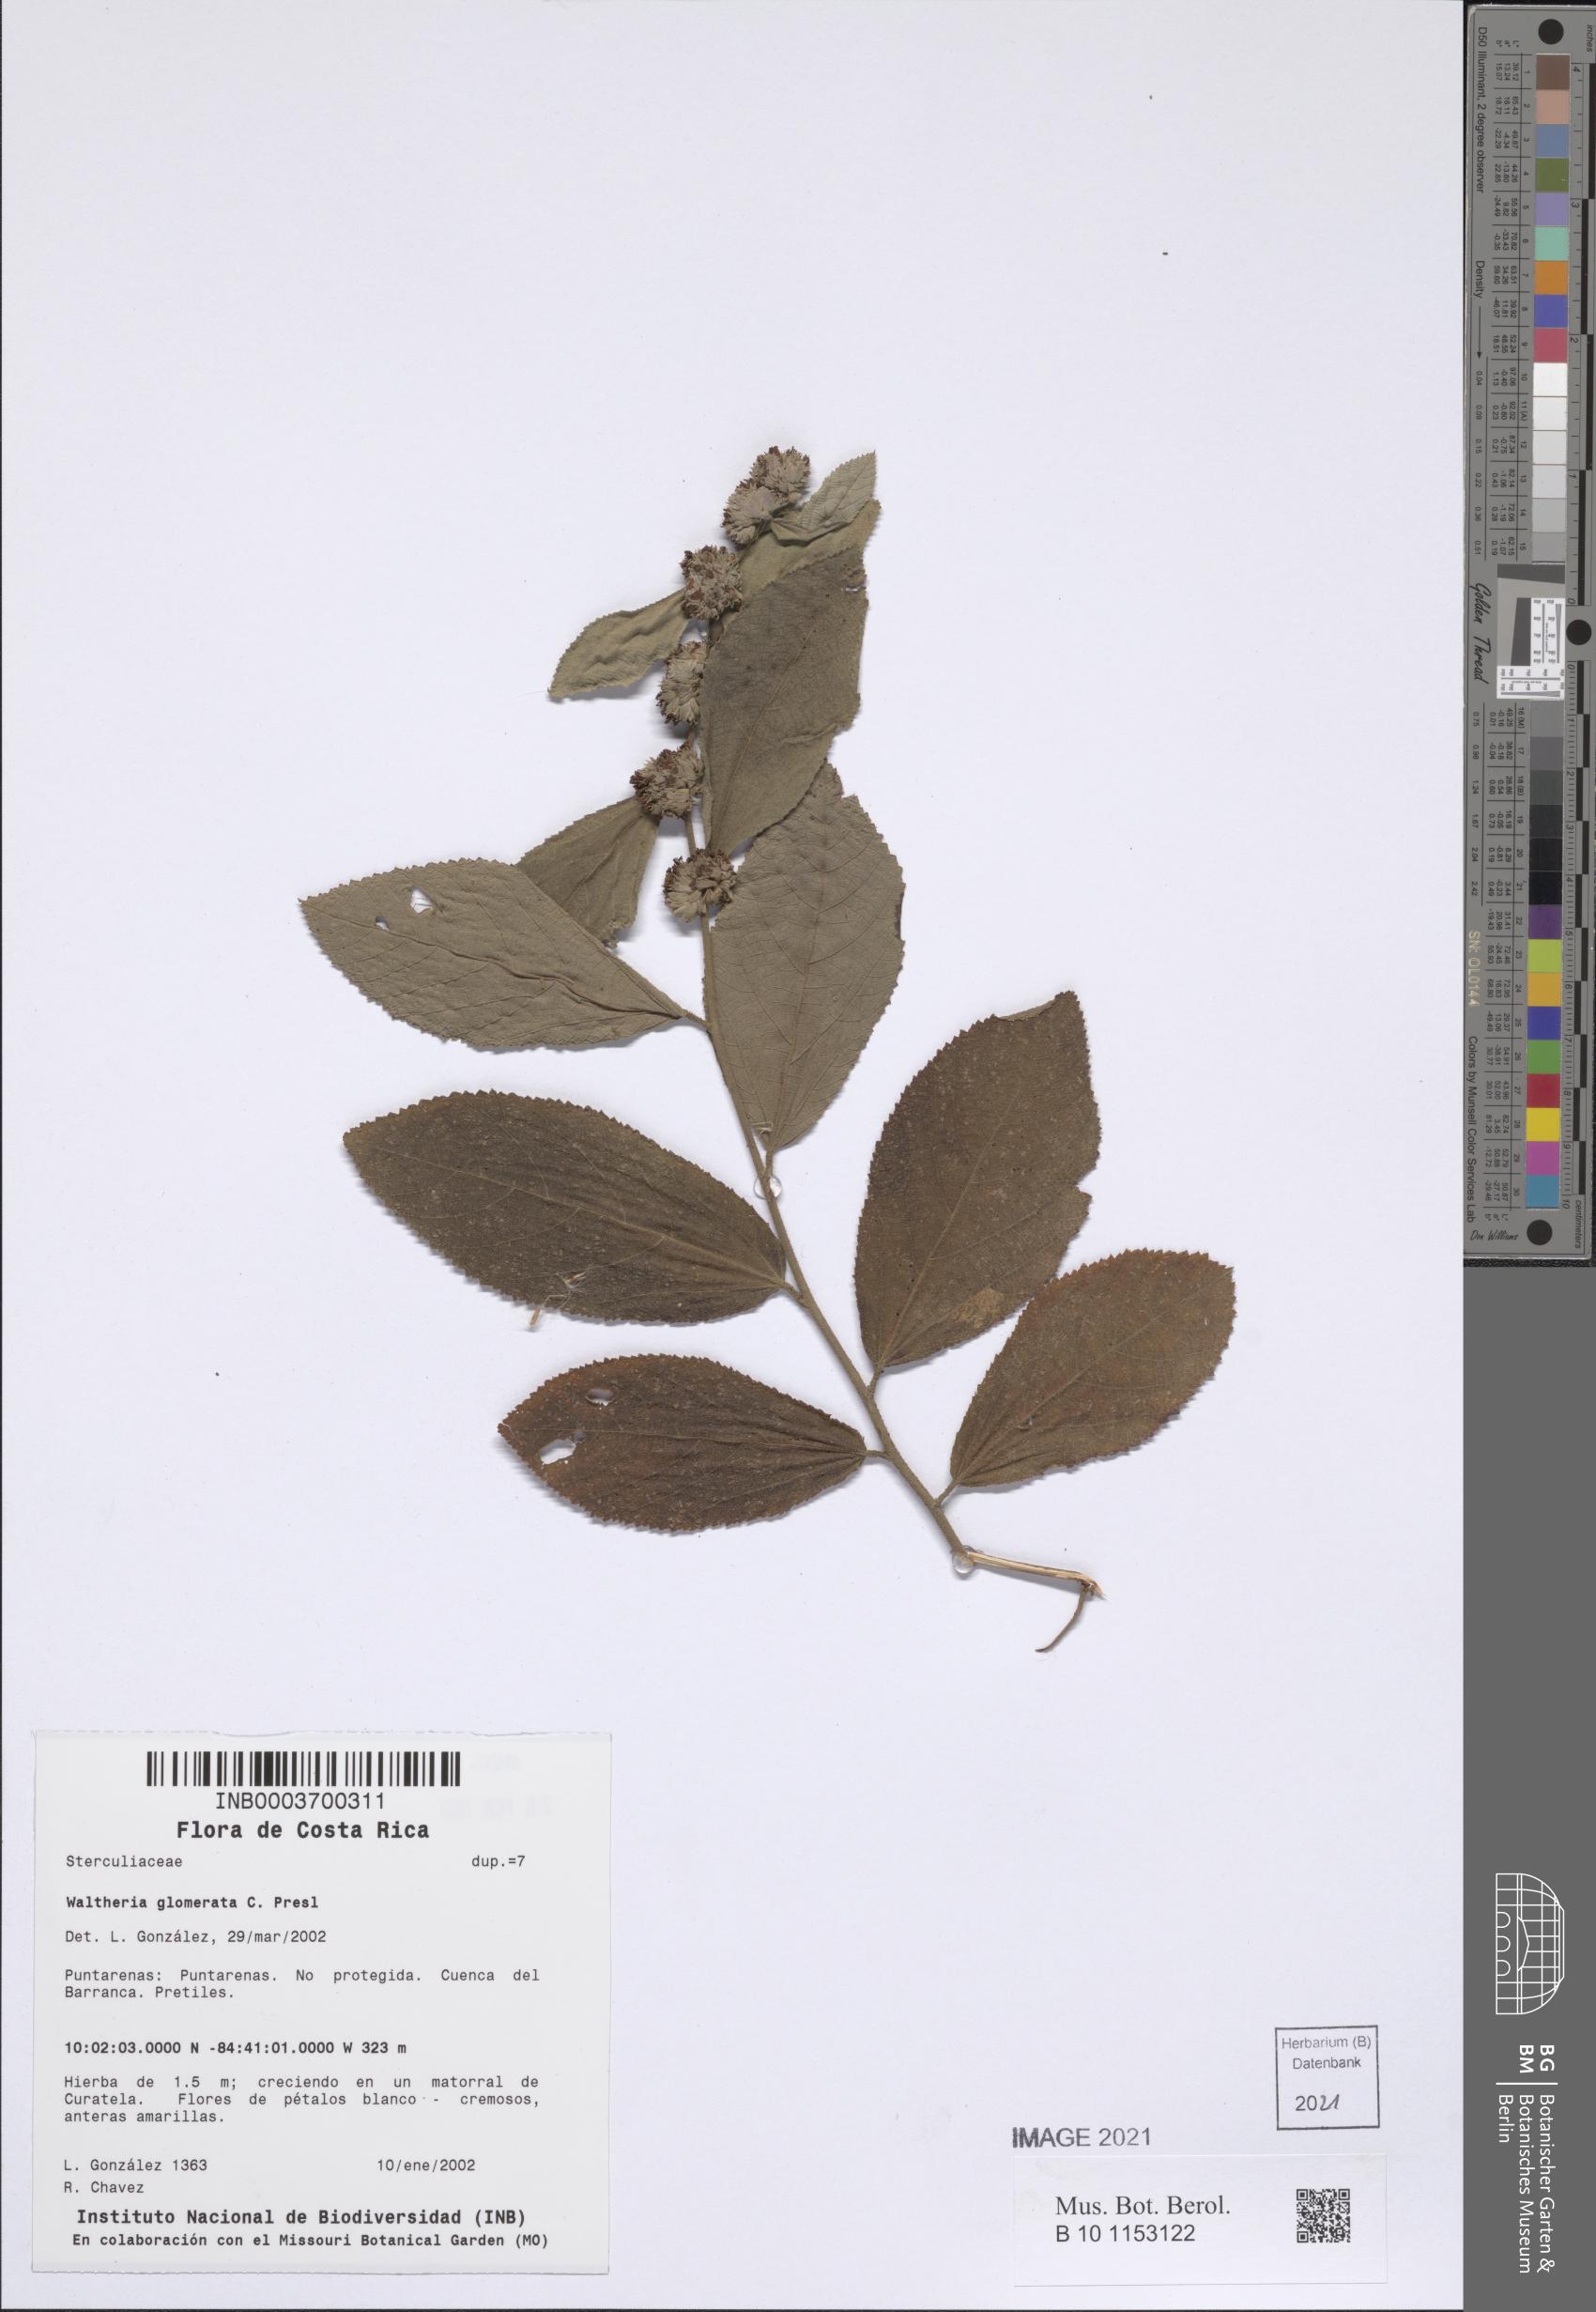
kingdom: Plantae
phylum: Tracheophyta
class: Magnoliopsida
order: Malvales
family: Malvaceae
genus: Waltheria
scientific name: Waltheria glomerata
